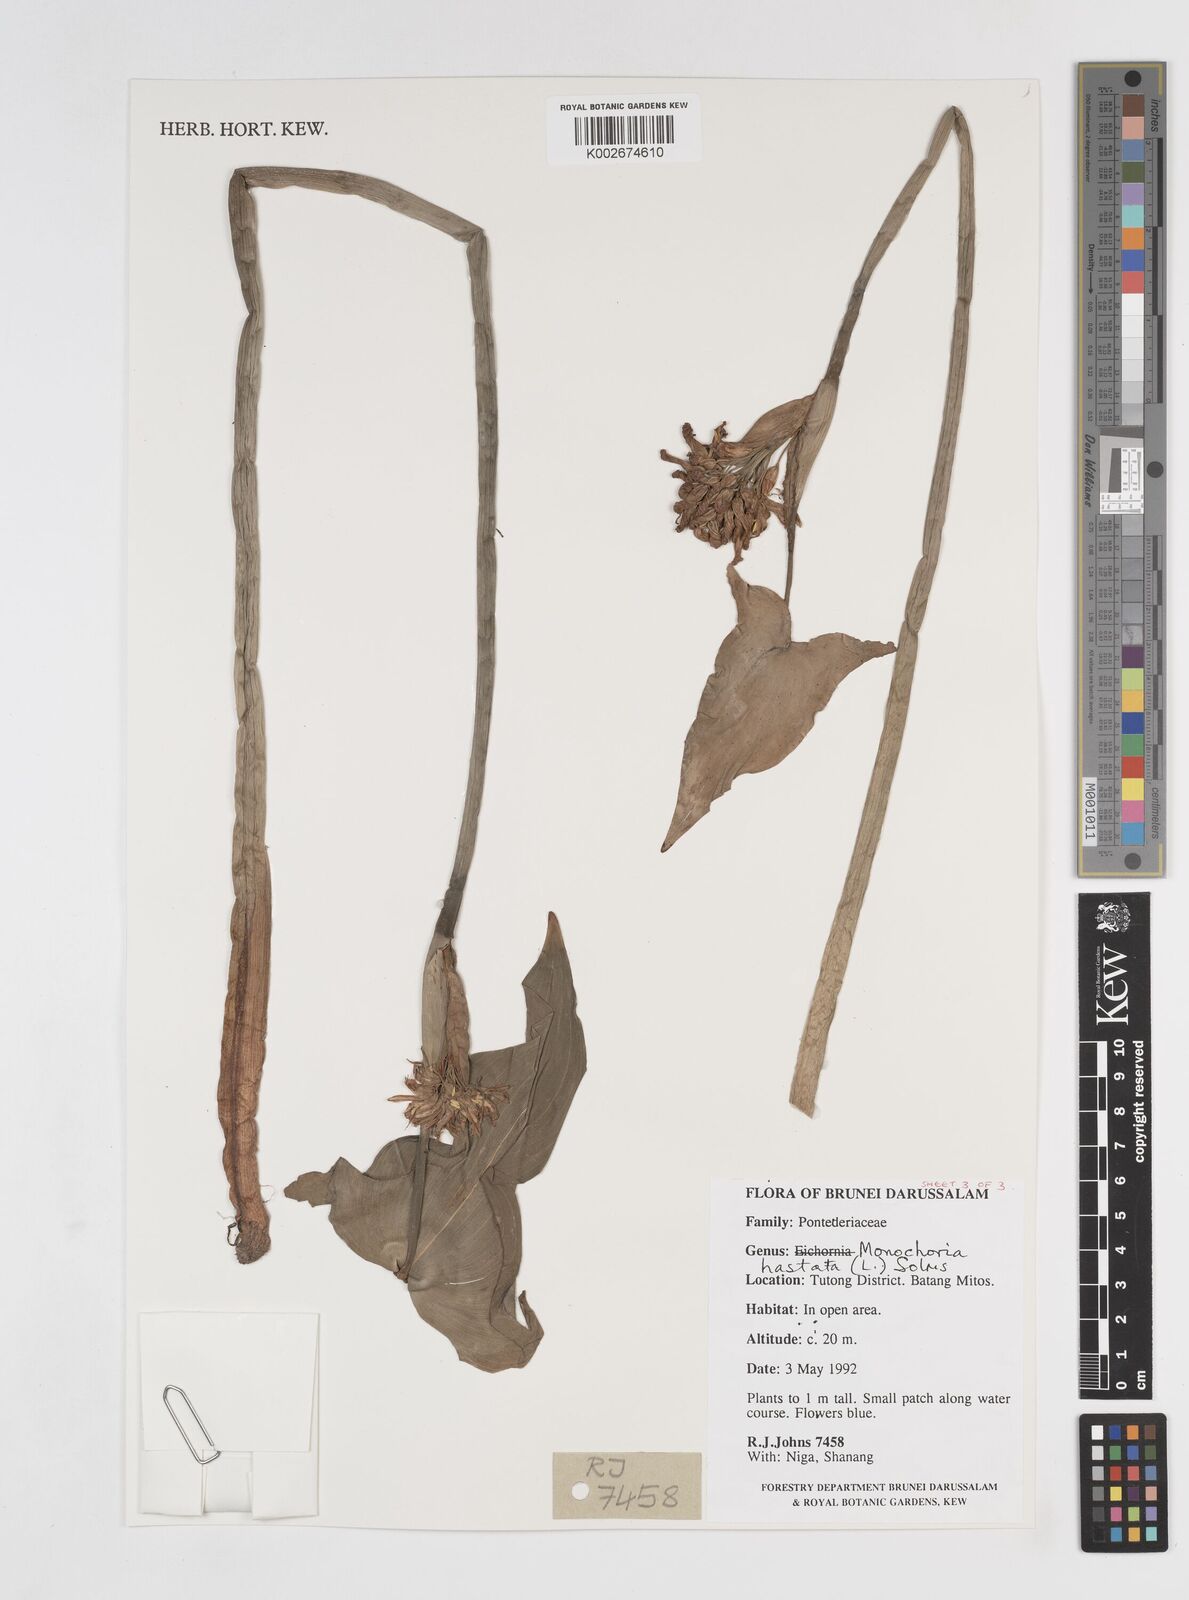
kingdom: Plantae
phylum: Tracheophyta
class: Liliopsida
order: Commelinales
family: Pontederiaceae
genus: Pontederia
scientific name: Pontederia hastata
